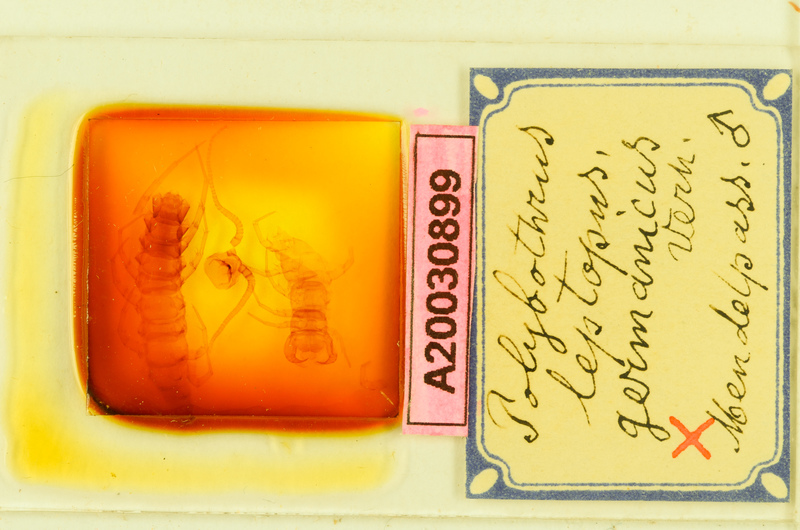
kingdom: Animalia
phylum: Arthropoda
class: Chilopoda
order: Lithobiomorpha
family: Lithobiidae
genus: Polybothrus
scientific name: Polybothrus leptopus
